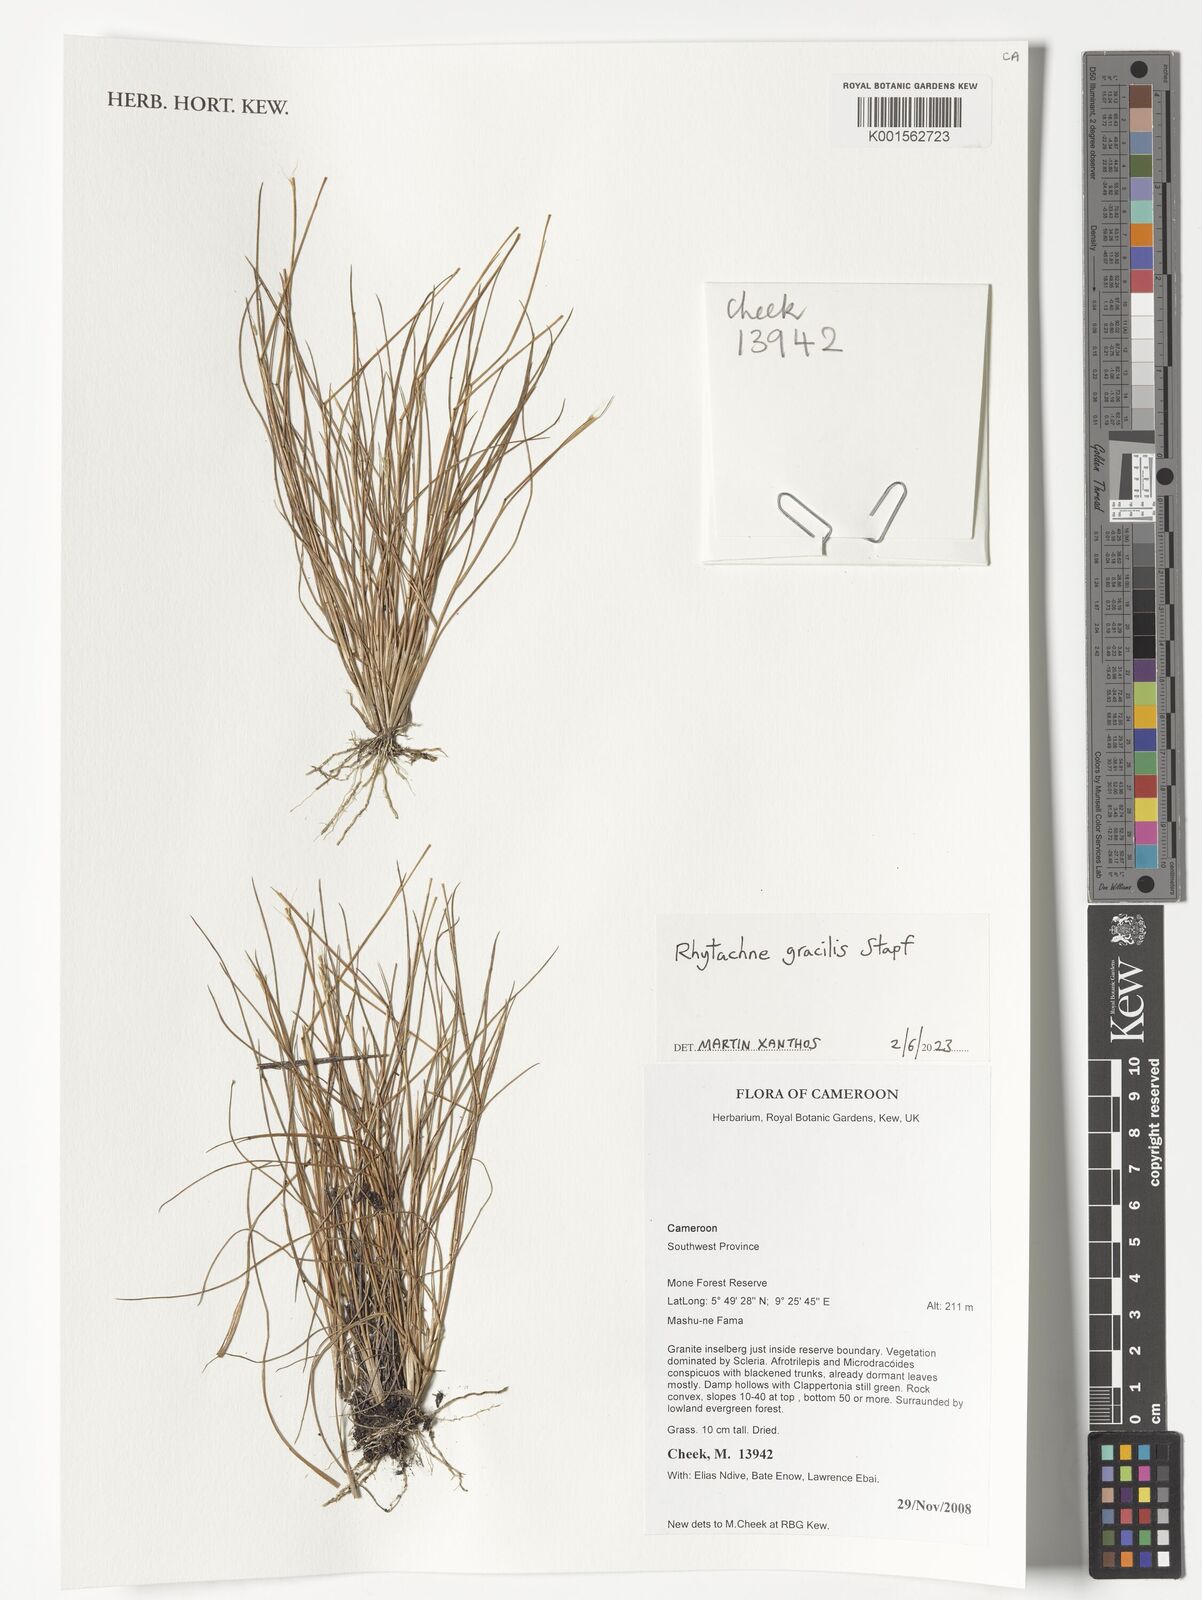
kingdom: Plantae
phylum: Tracheophyta
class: Liliopsida
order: Poales
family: Poaceae
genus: Rhytachne
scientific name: Rhytachne gracilis
